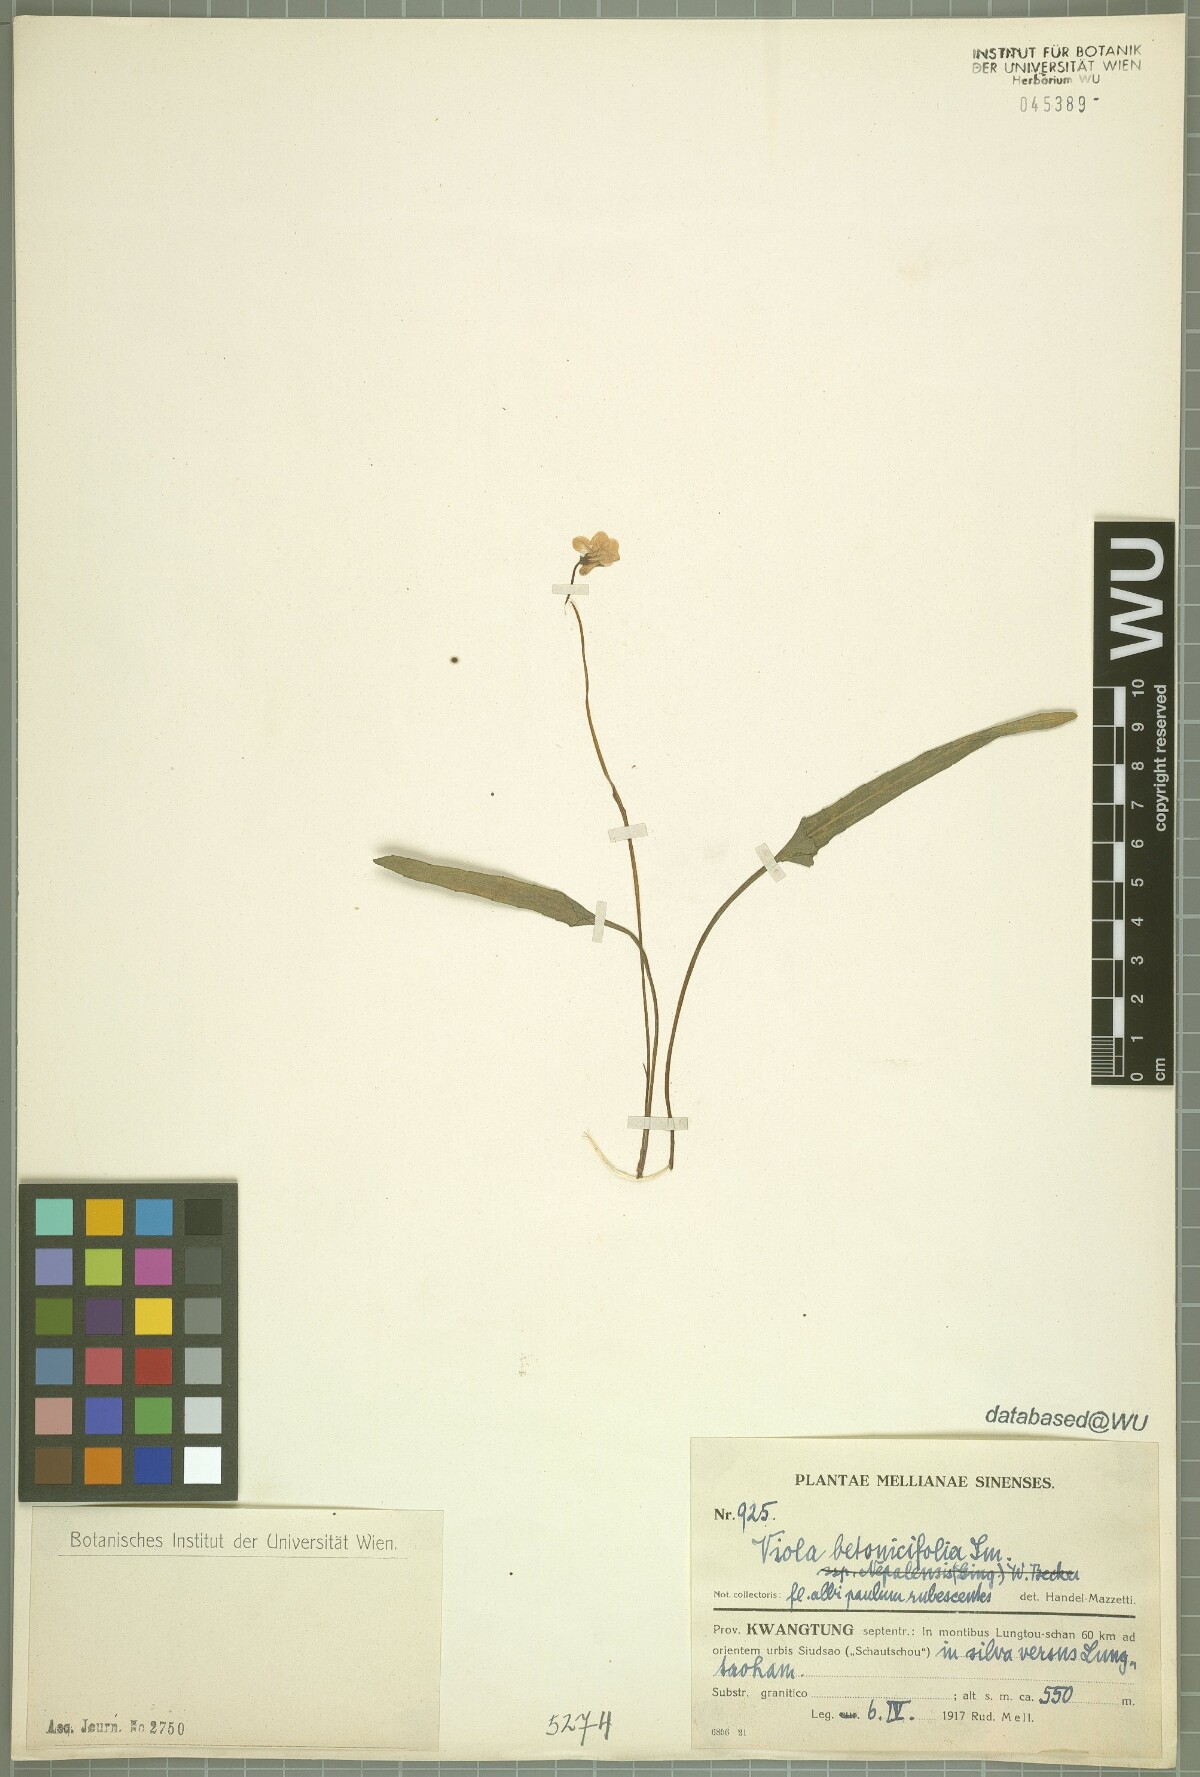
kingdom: Plantae
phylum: Tracheophyta
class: Magnoliopsida
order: Malpighiales
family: Violaceae
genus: Viola
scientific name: Viola betonicifolia
